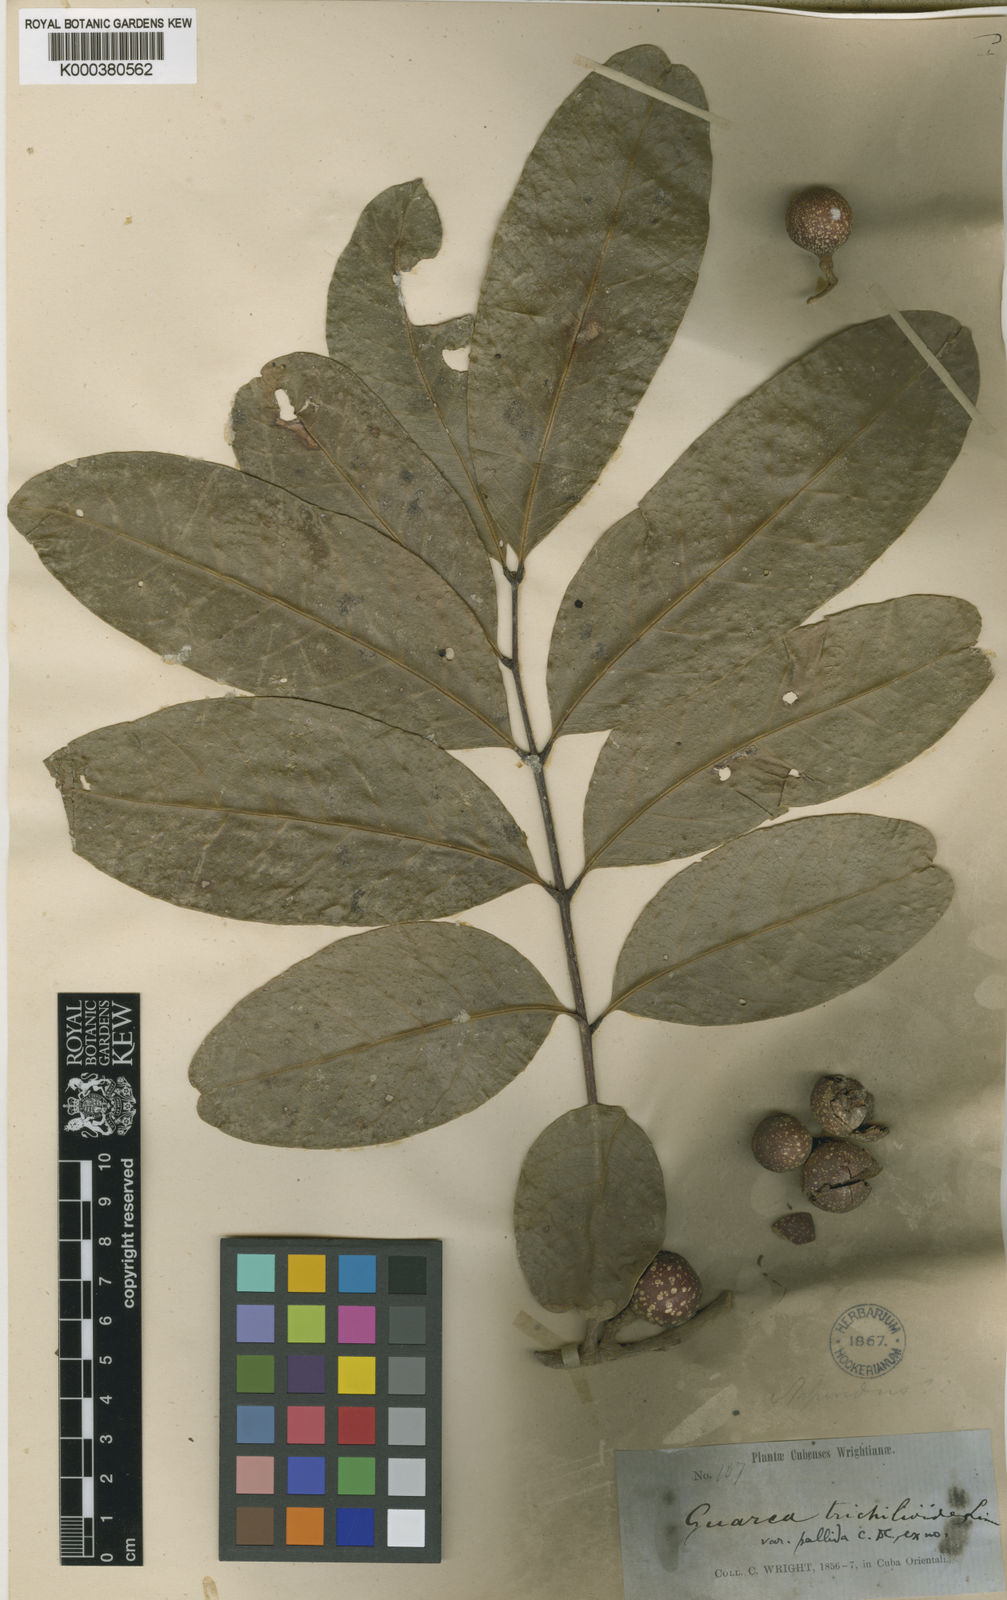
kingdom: Plantae
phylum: Tracheophyta
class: Magnoliopsida
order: Sapindales
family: Meliaceae
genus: Guarea
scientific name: Guarea guidonia
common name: American muskwood
